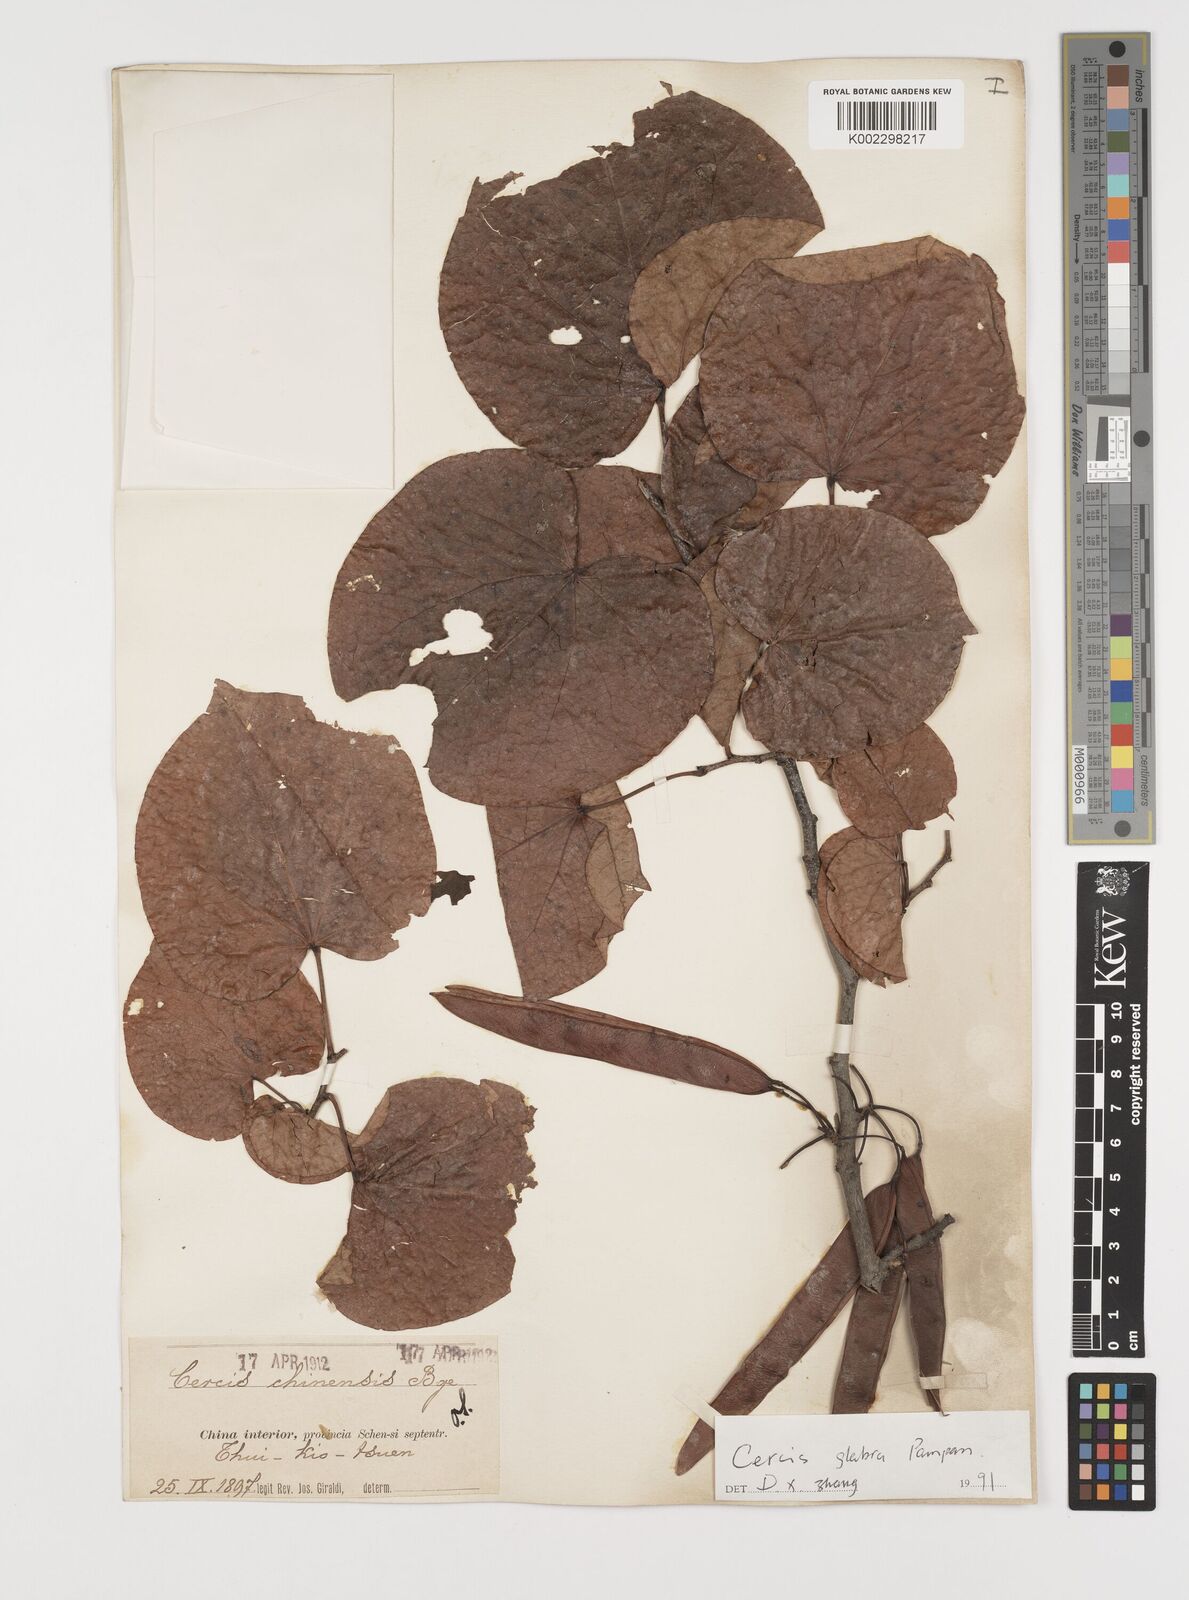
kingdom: Plantae
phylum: Tracheophyta
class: Magnoliopsida
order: Fabales
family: Fabaceae
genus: Cercis
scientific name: Cercis glabra
